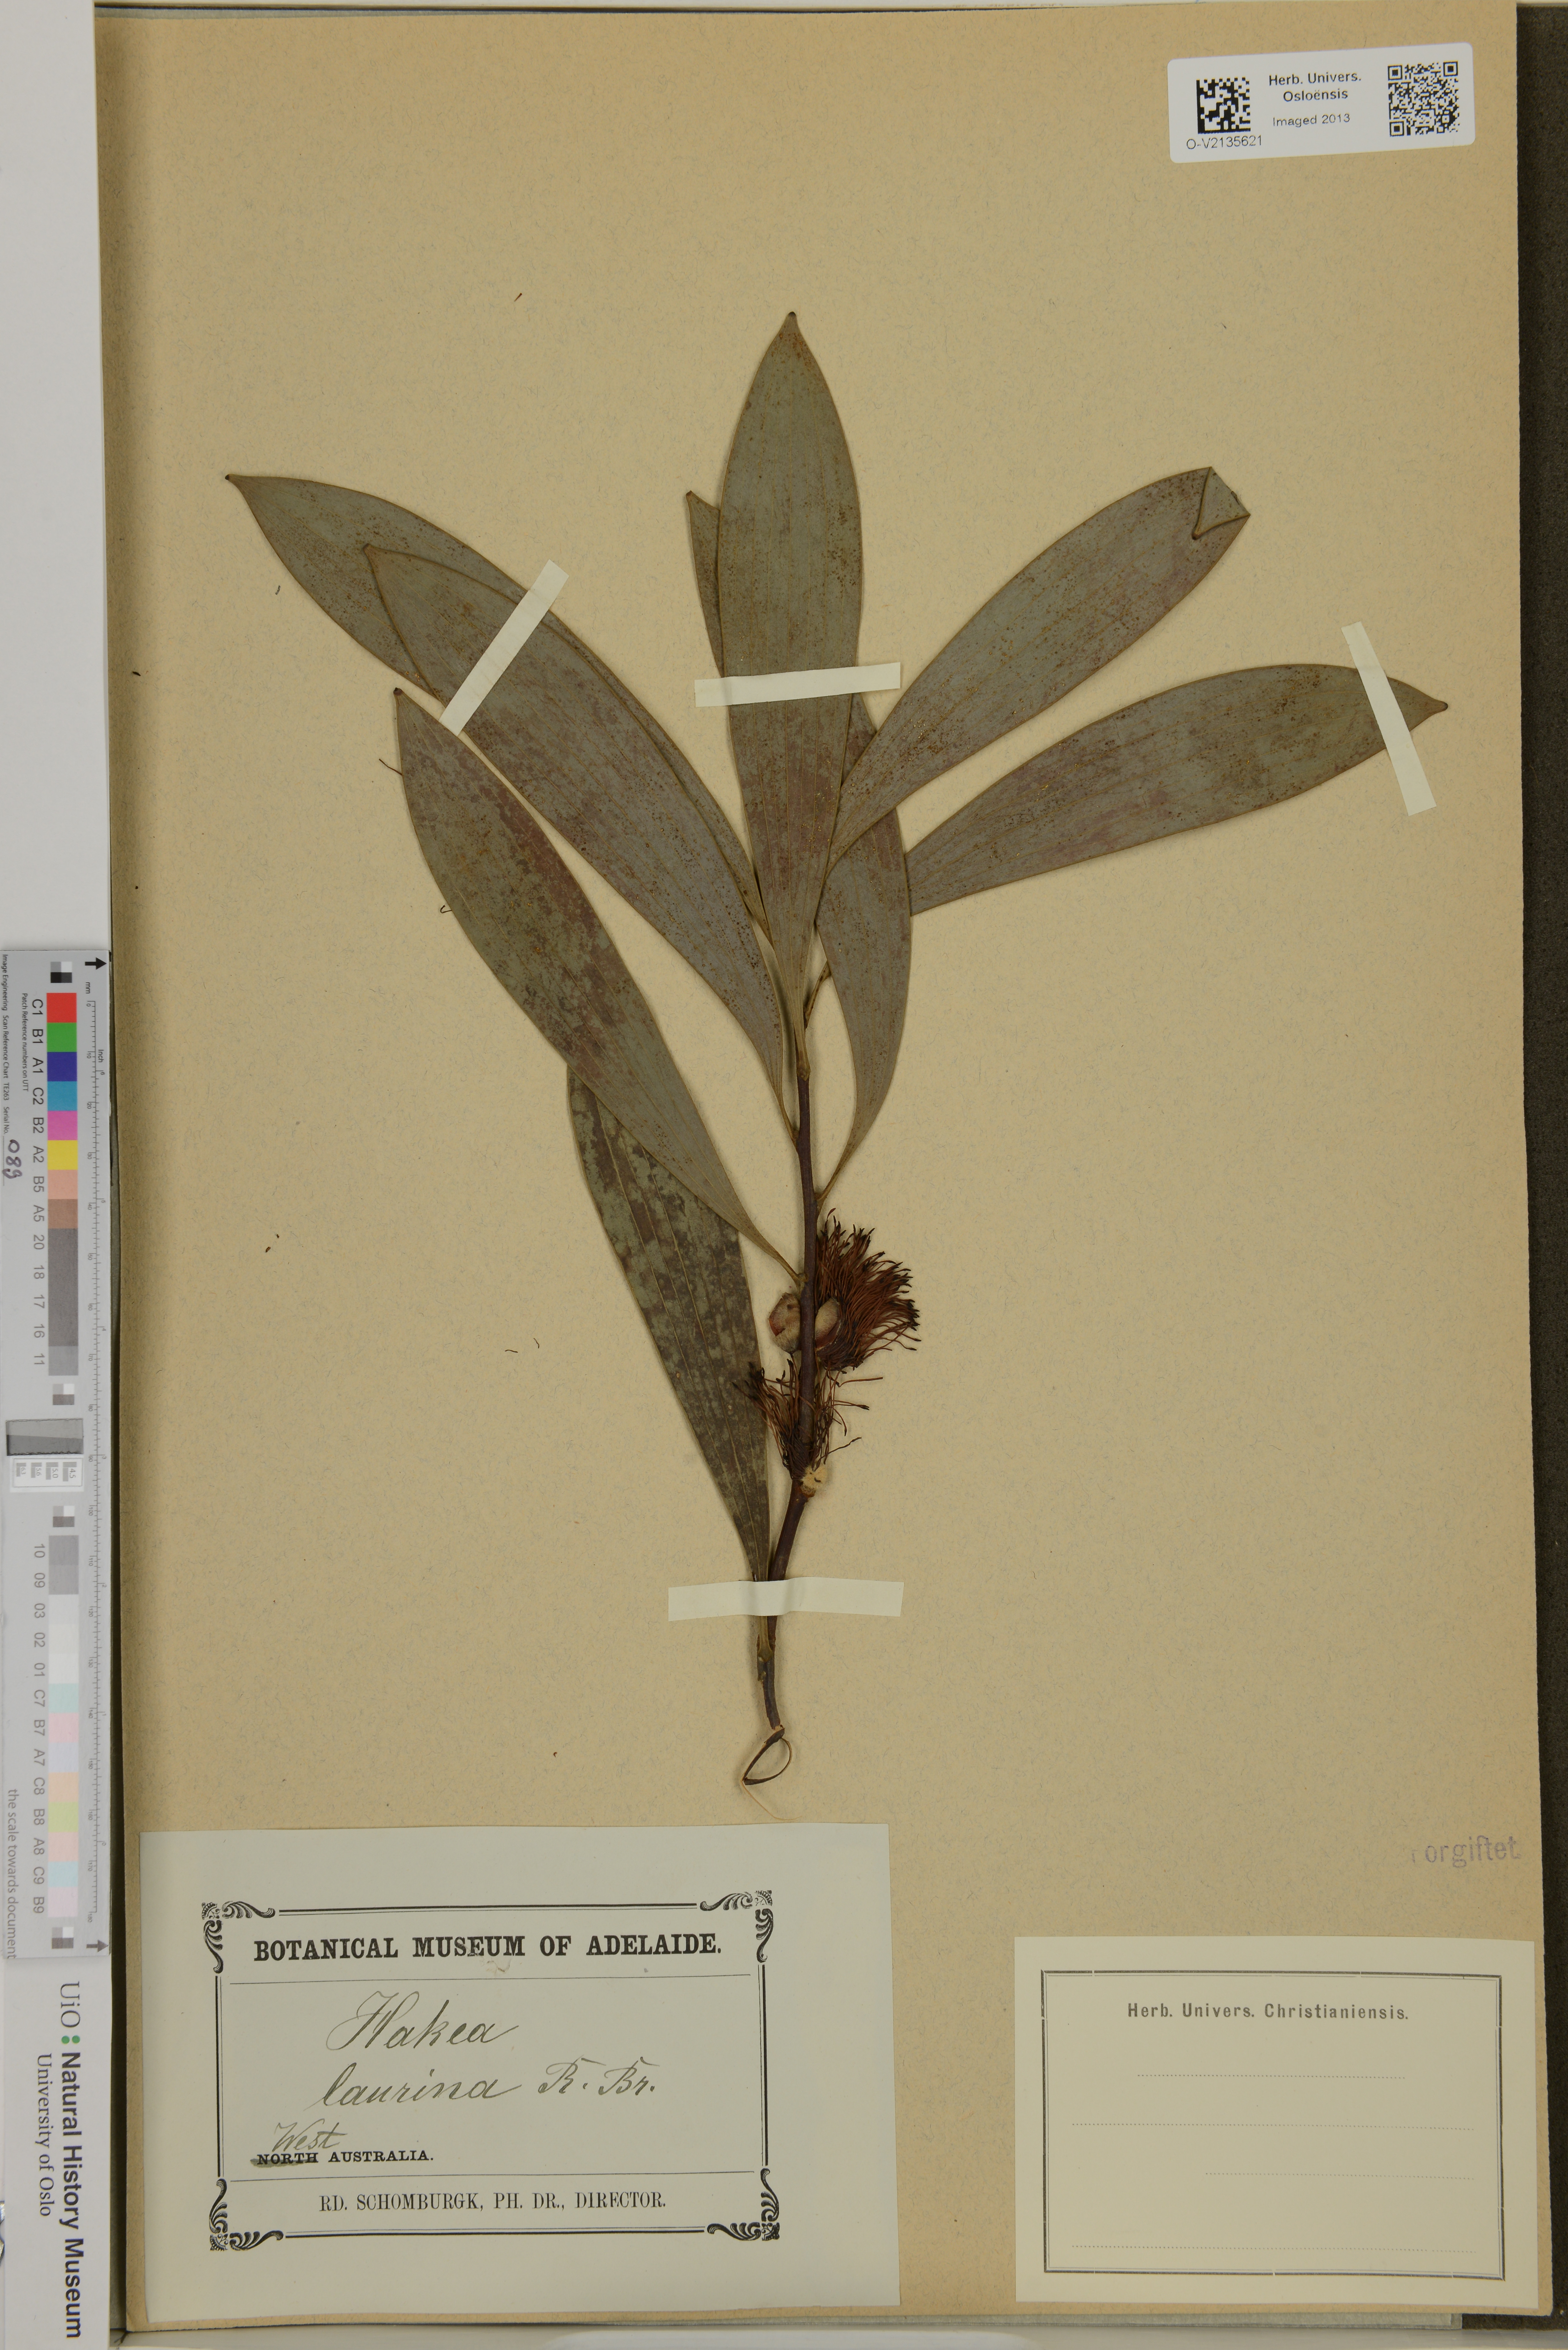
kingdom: Plantae
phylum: Tracheophyta
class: Magnoliopsida
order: Proteales
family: Proteaceae
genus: Hakea
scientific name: Hakea laurina
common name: Cushion hakea
